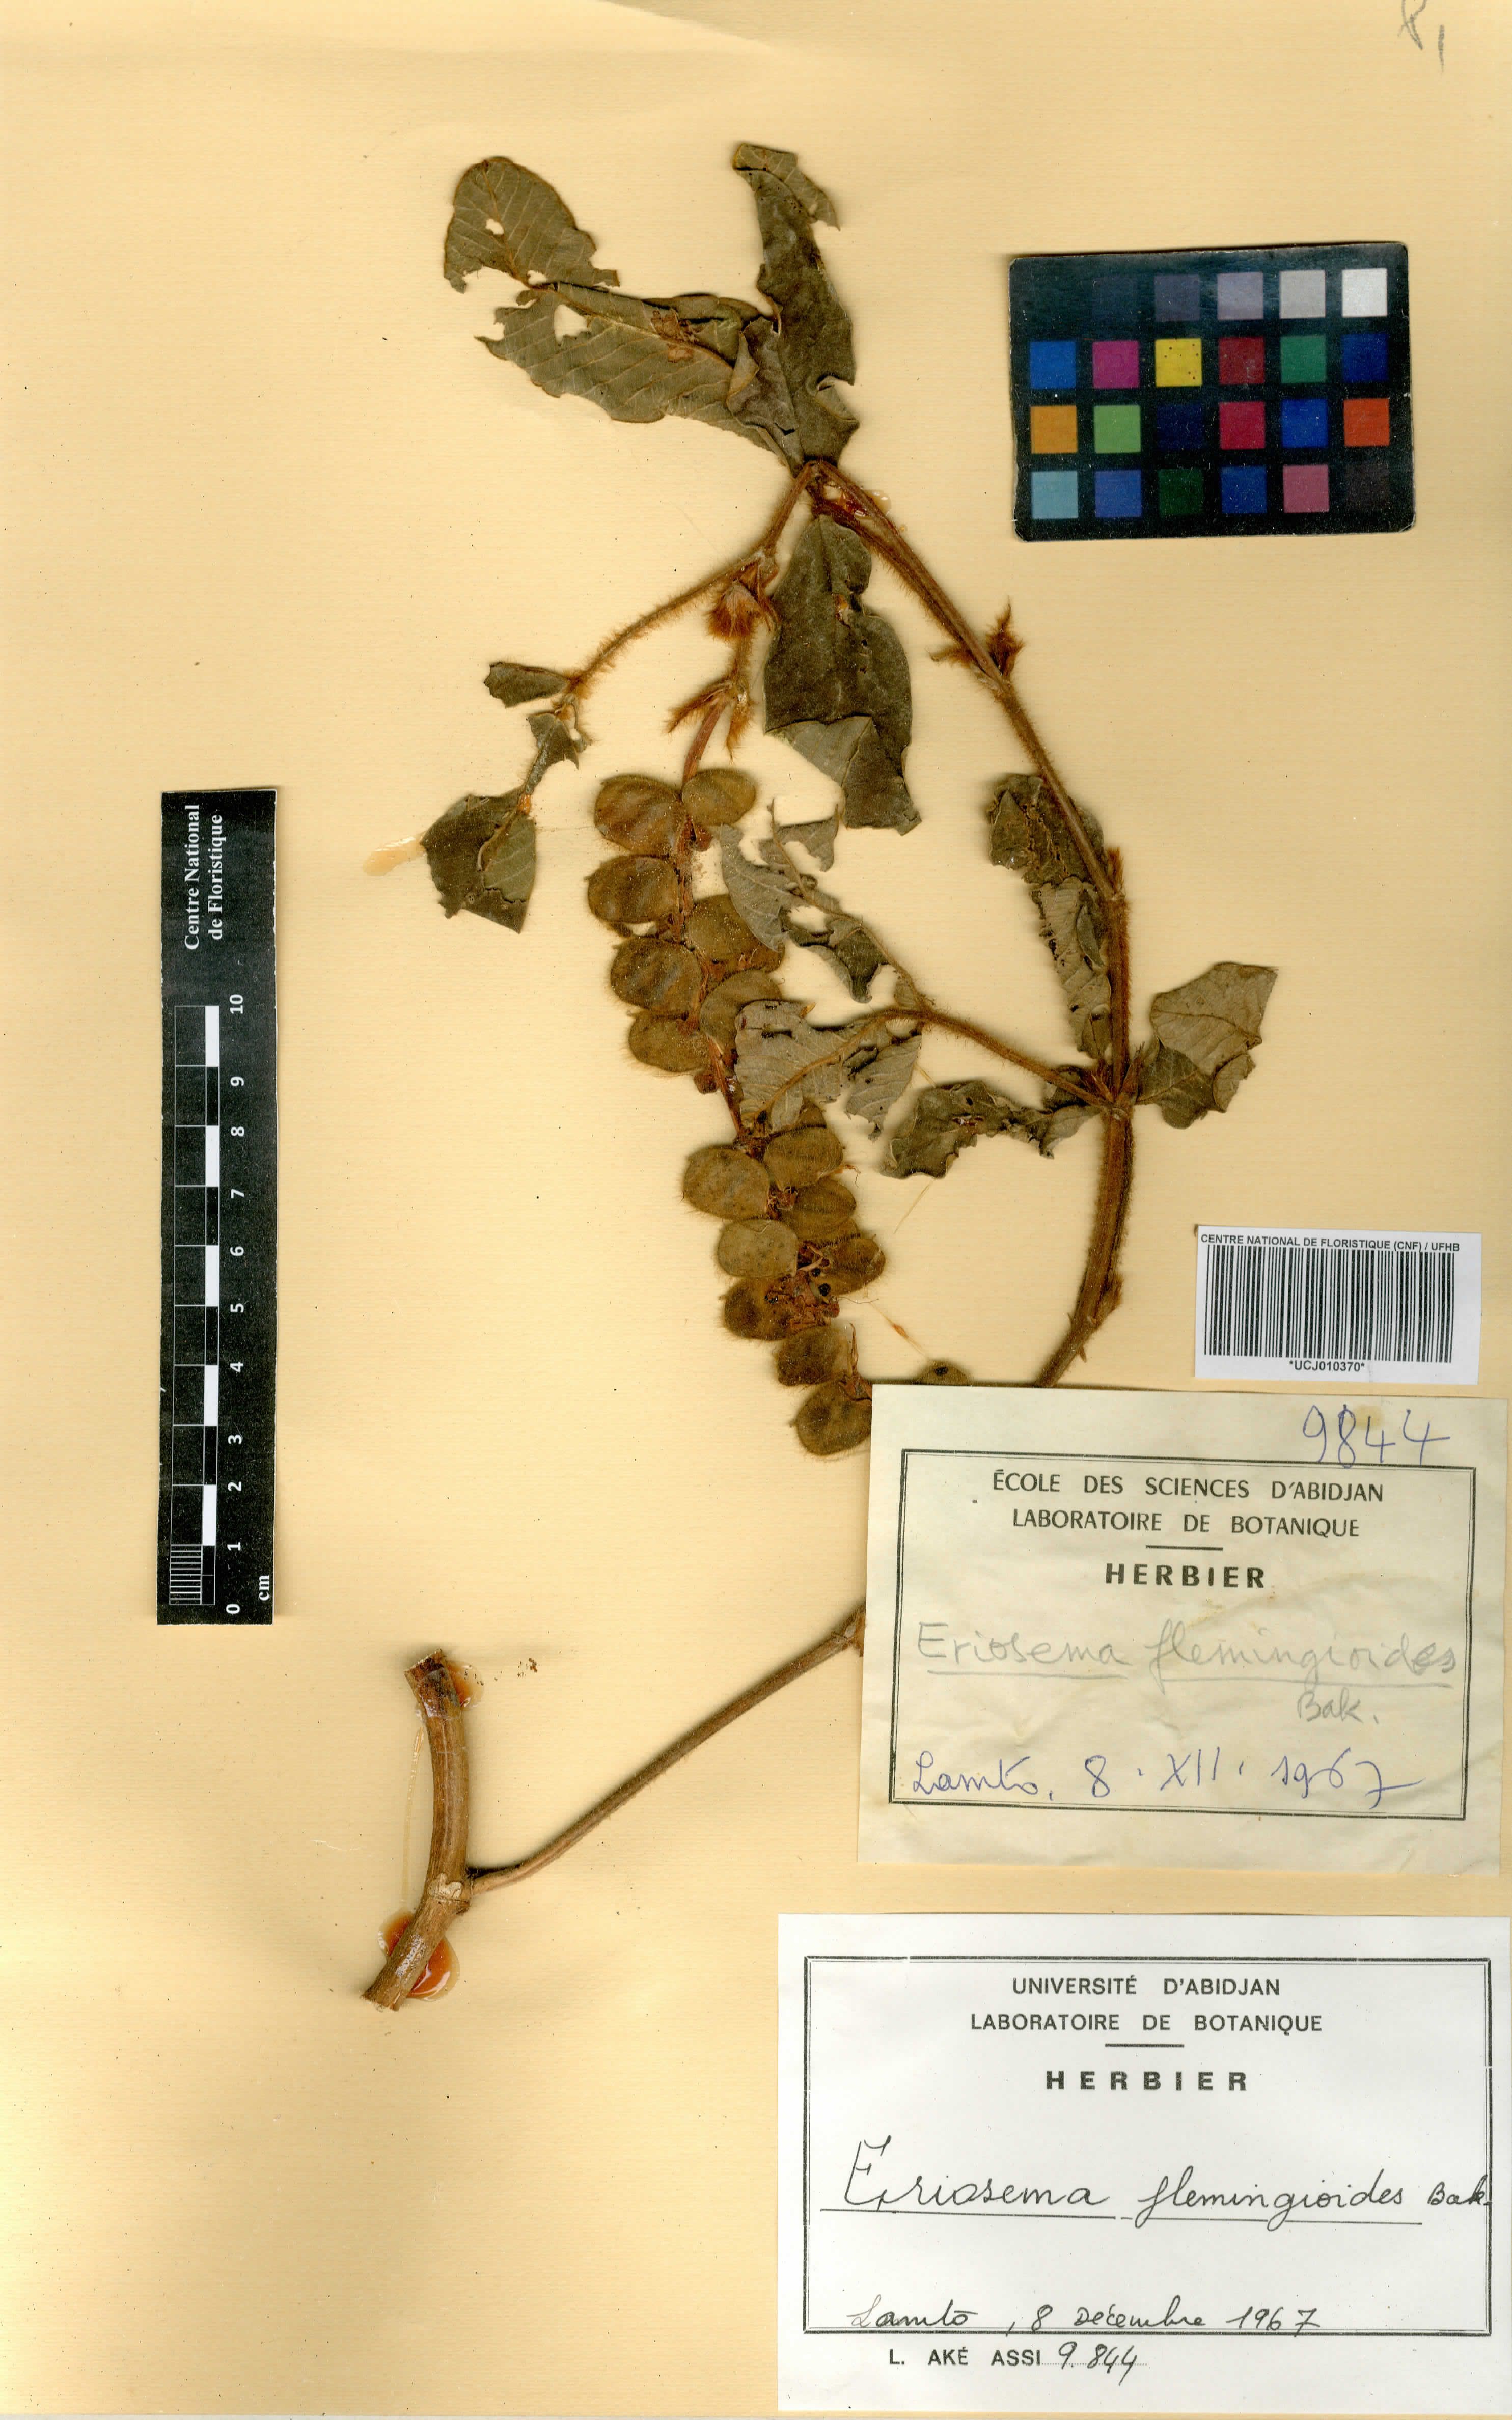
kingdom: Plantae
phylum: Tracheophyta
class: Magnoliopsida
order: Fabales
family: Fabaceae
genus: Eriosema
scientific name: Eriosema flemingioides
